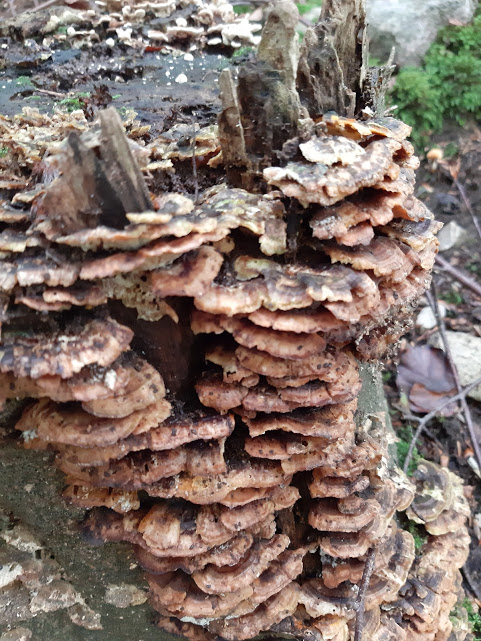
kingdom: Fungi
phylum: Basidiomycota
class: Agaricomycetes
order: Polyporales
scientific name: Polyporales
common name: poresvampordenen
